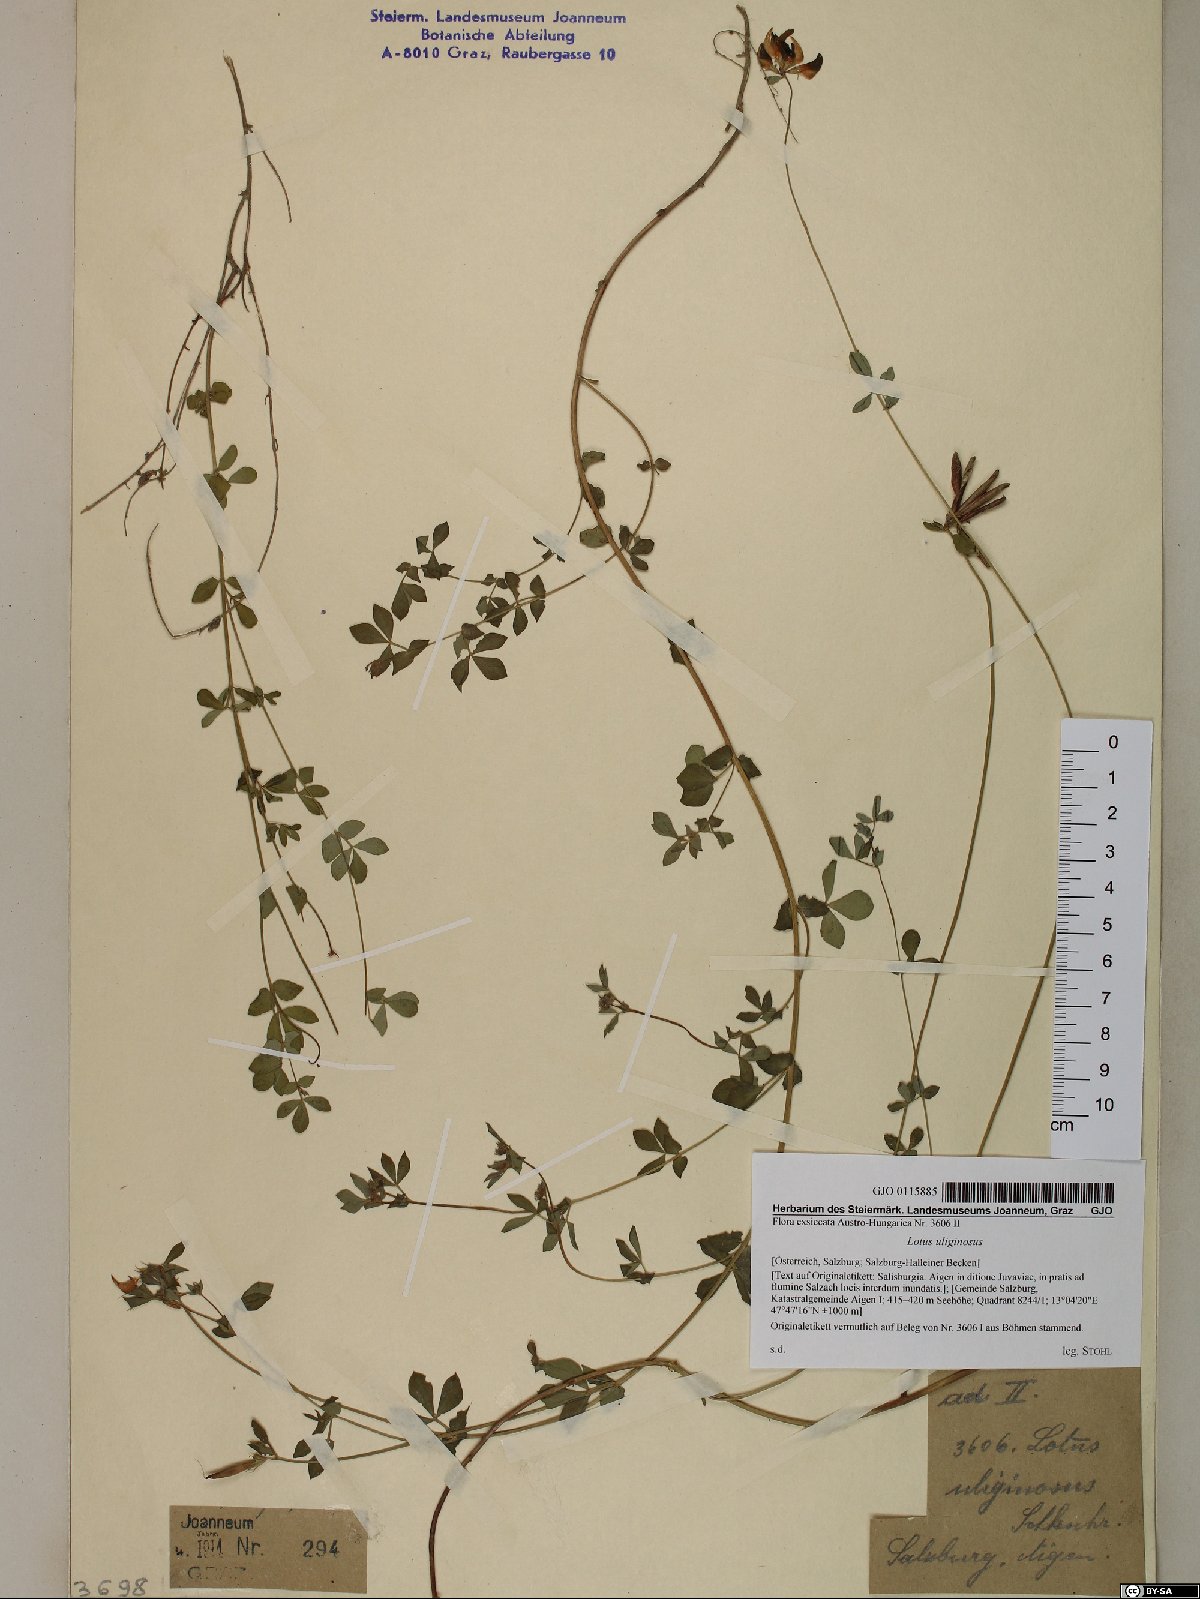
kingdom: Plantae
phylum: Tracheophyta
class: Magnoliopsida
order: Fabales
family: Fabaceae
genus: Lotus
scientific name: Lotus pedunculatus
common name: Greater birdsfoot-trefoil
